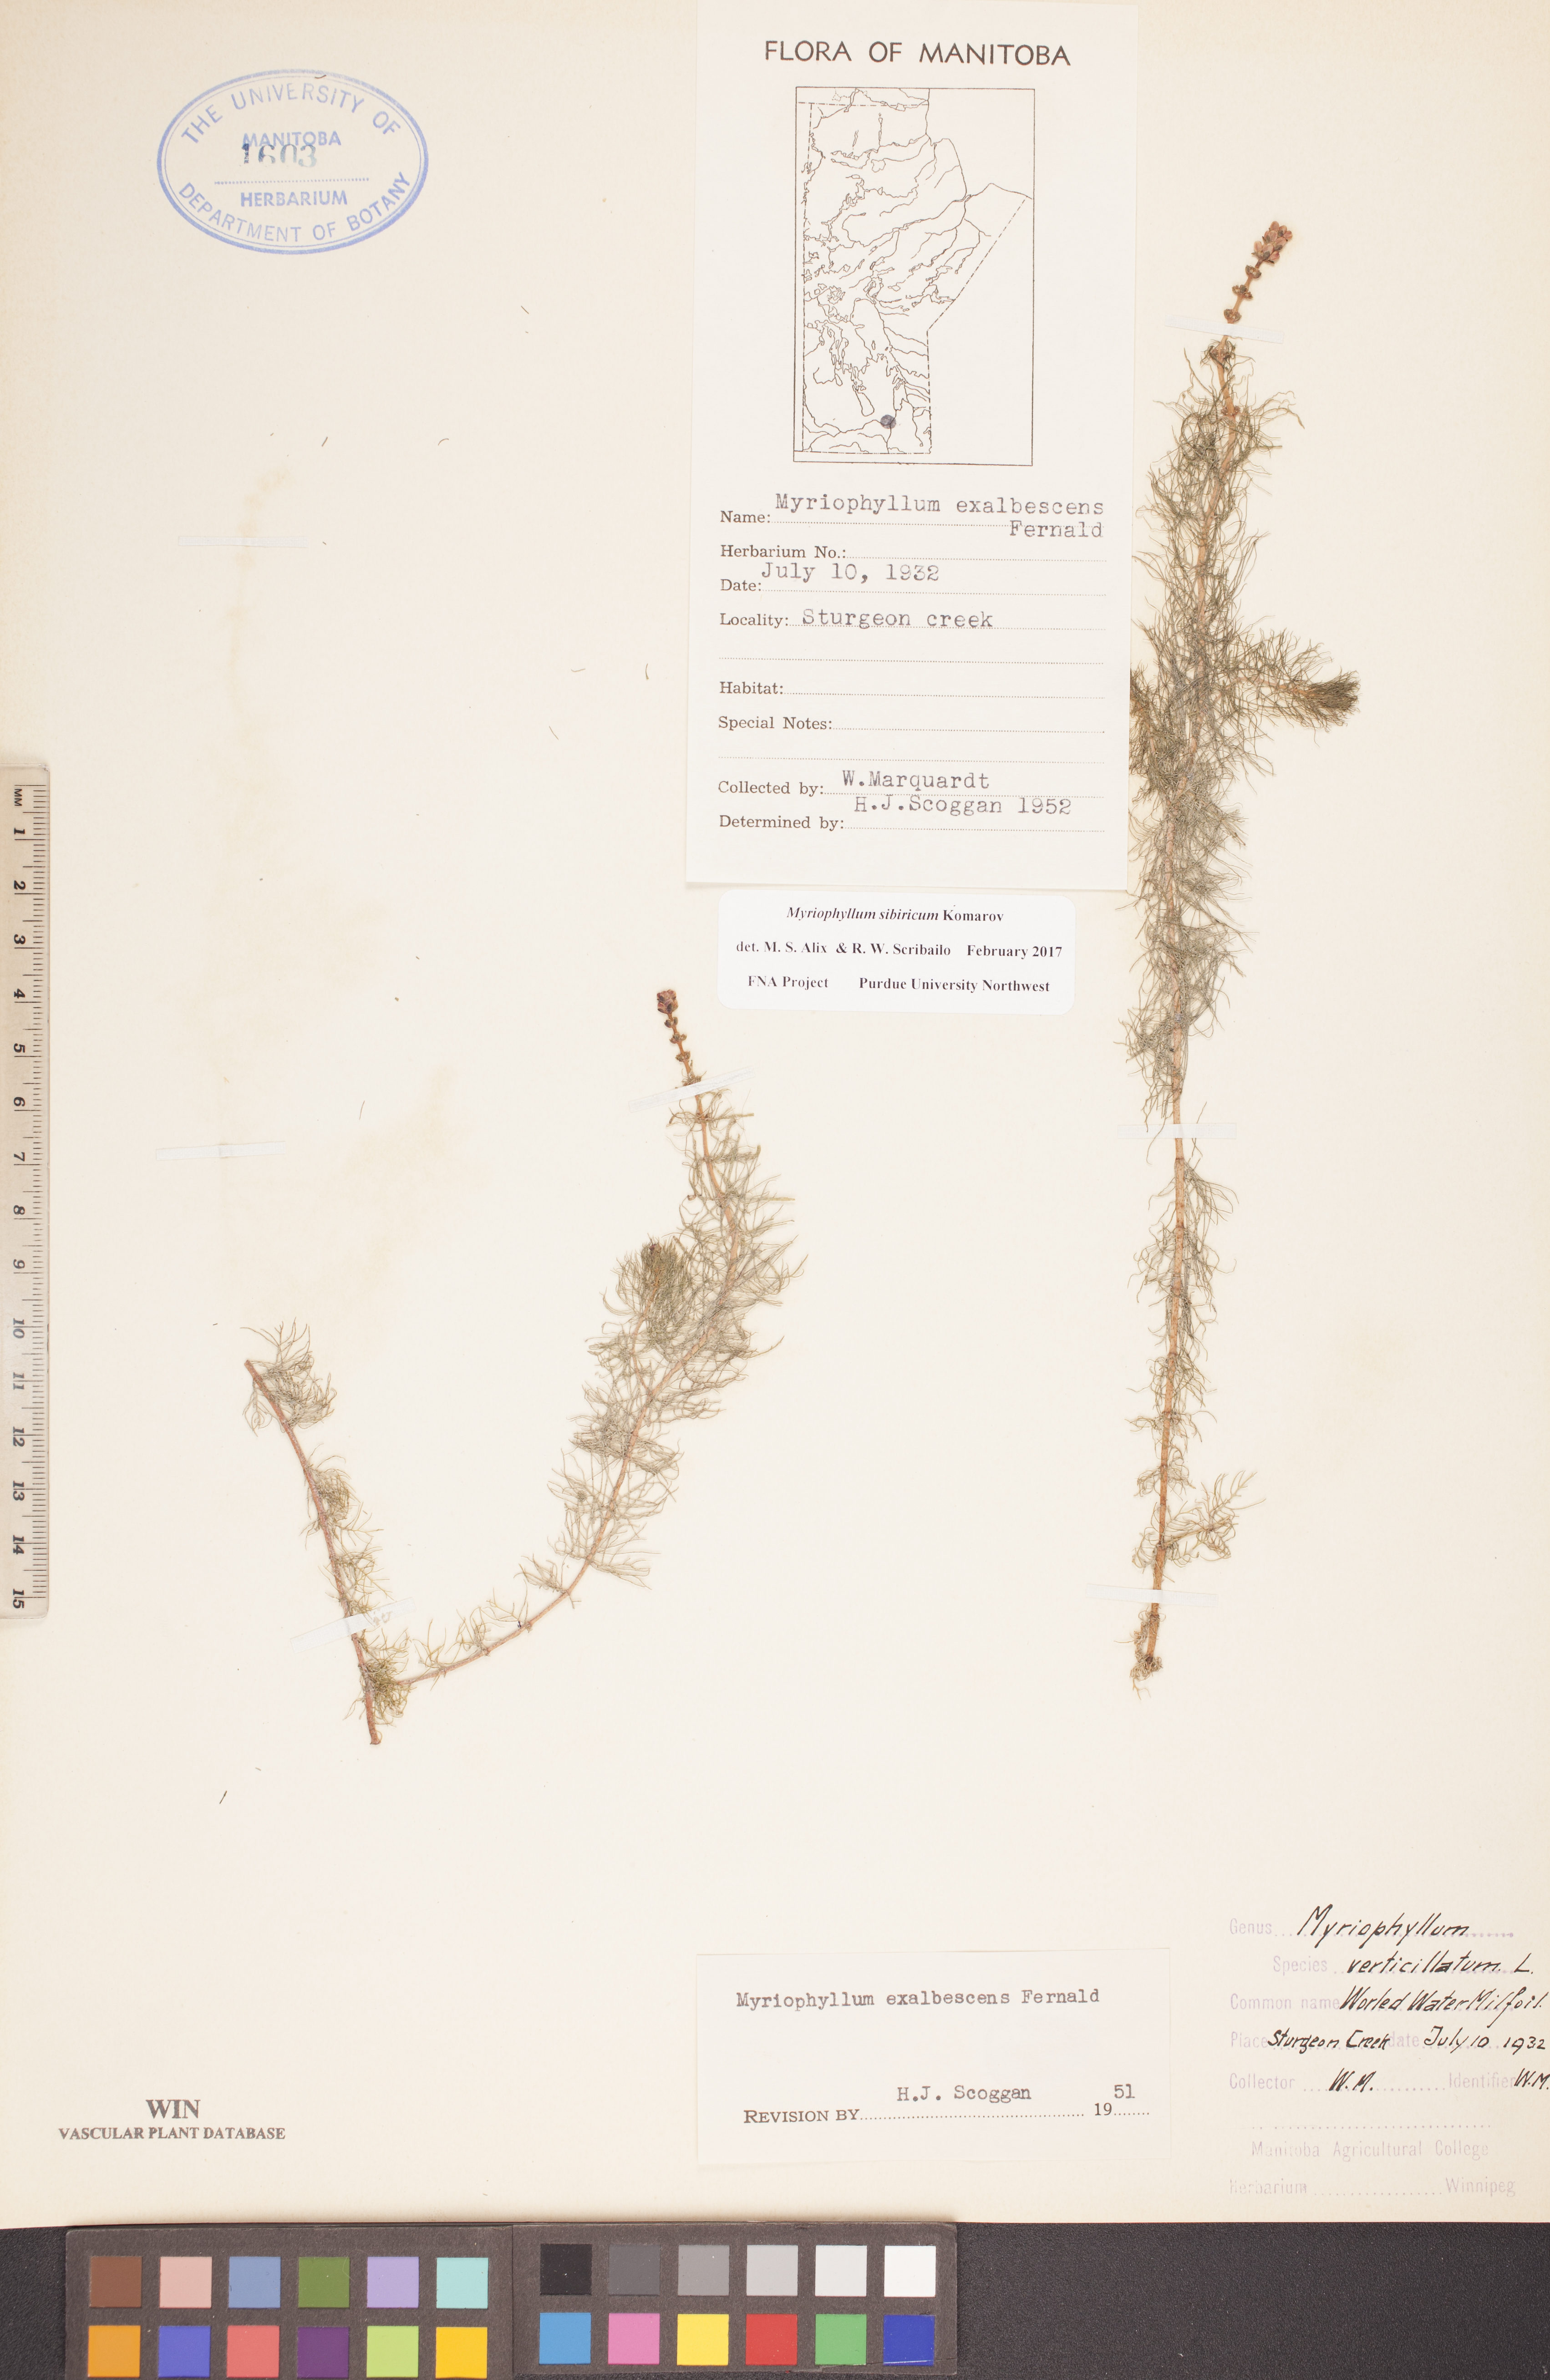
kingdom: Plantae
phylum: Tracheophyta
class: Magnoliopsida
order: Saxifragales
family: Haloragaceae
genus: Myriophyllum
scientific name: Myriophyllum sibiricum
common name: Siberian water-milfoil
